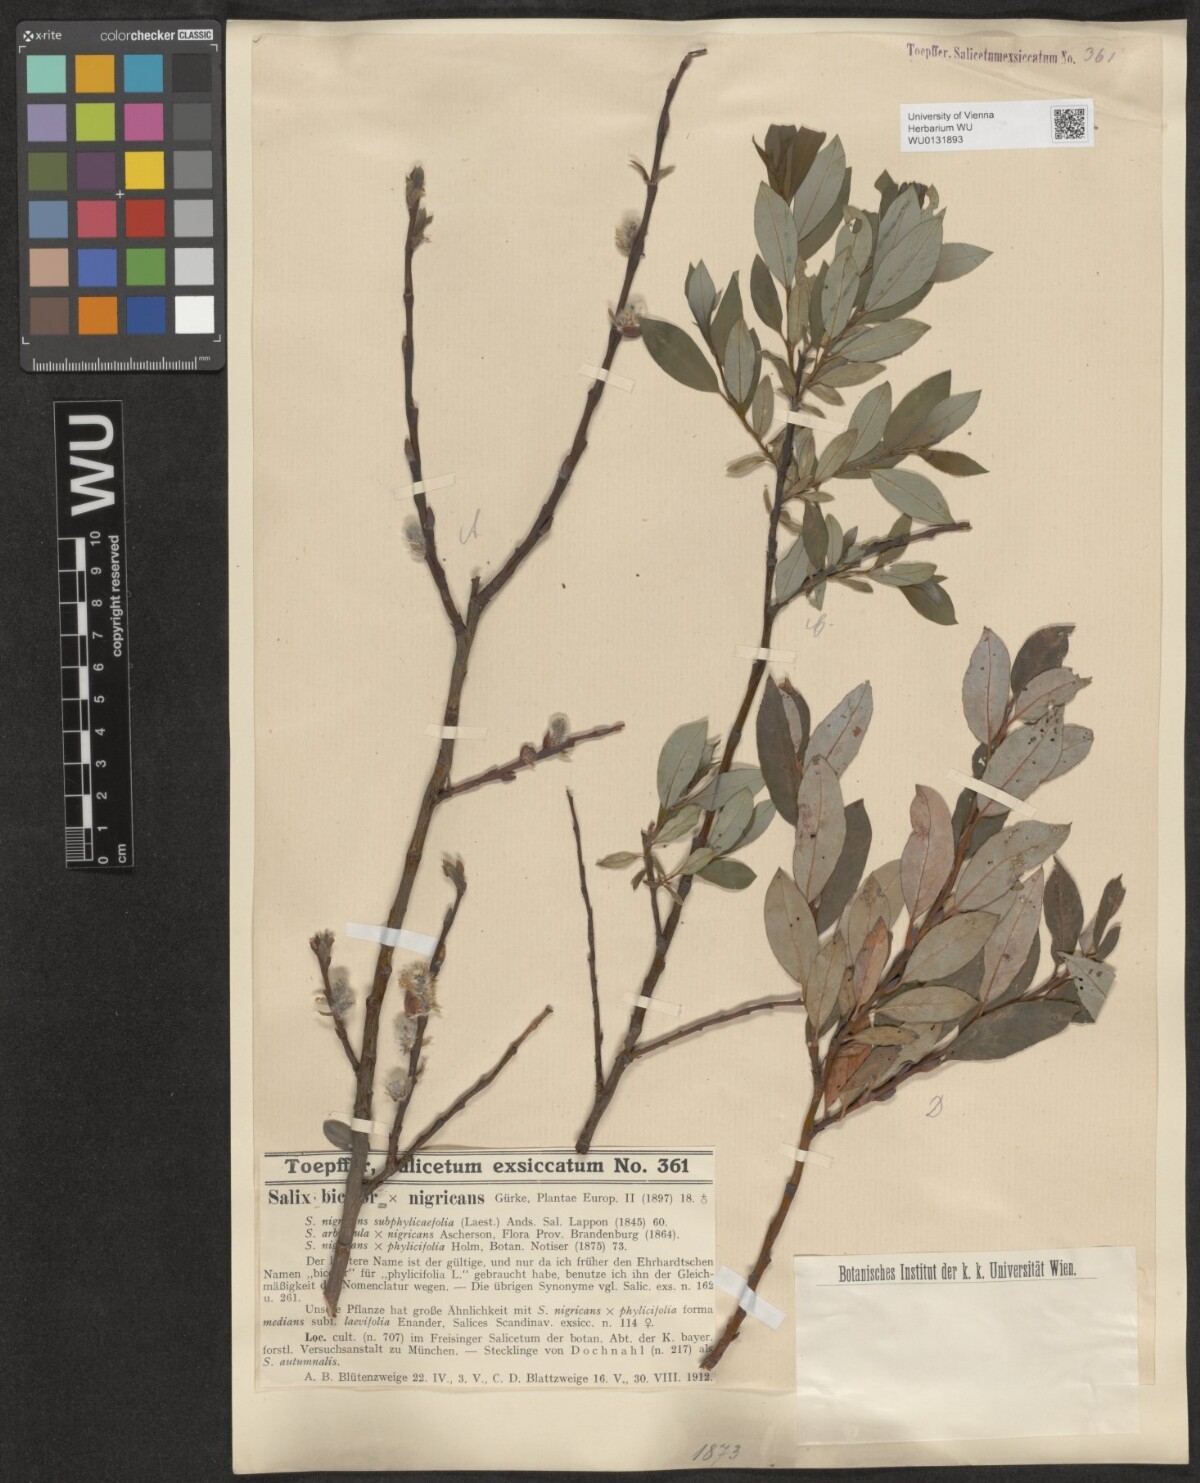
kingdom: Plantae
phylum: Tracheophyta
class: Magnoliopsida
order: Malpighiales
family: Salicaceae
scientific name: Salicaceae
